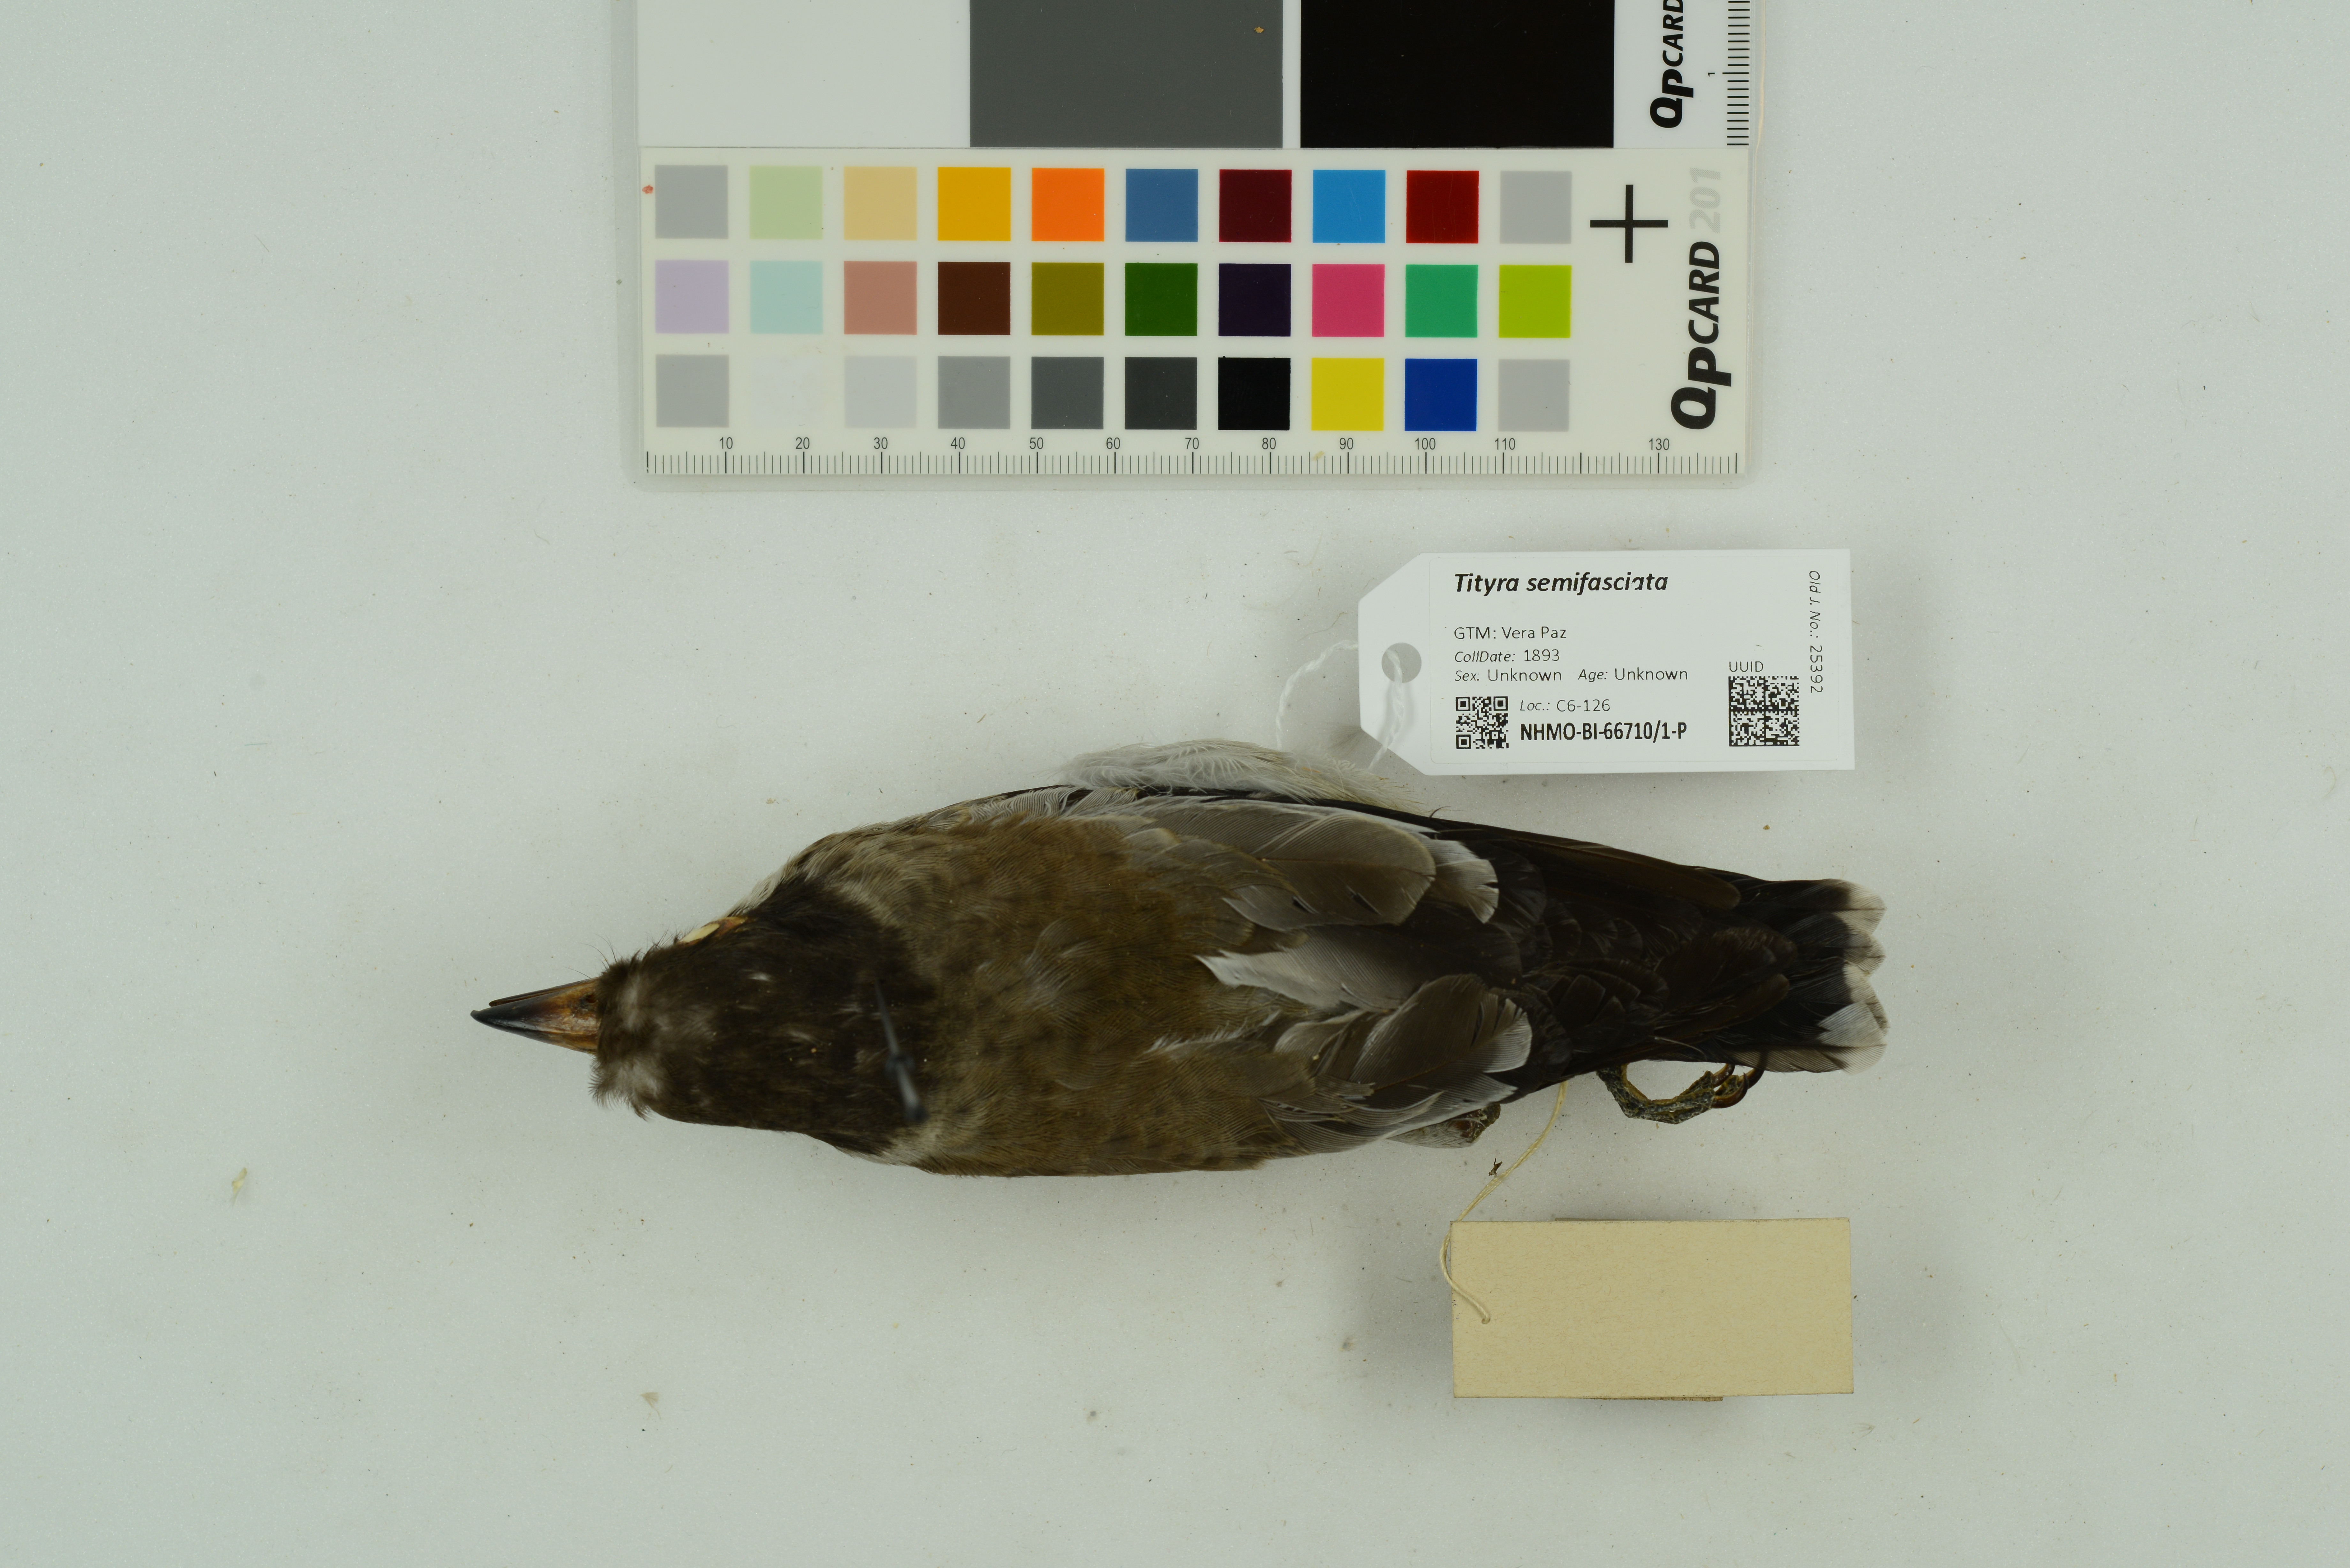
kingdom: Animalia
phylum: Chordata
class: Aves
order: Passeriformes
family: Cotingidae
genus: Tityra
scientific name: Tityra semifasciata
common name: Masked tityra
